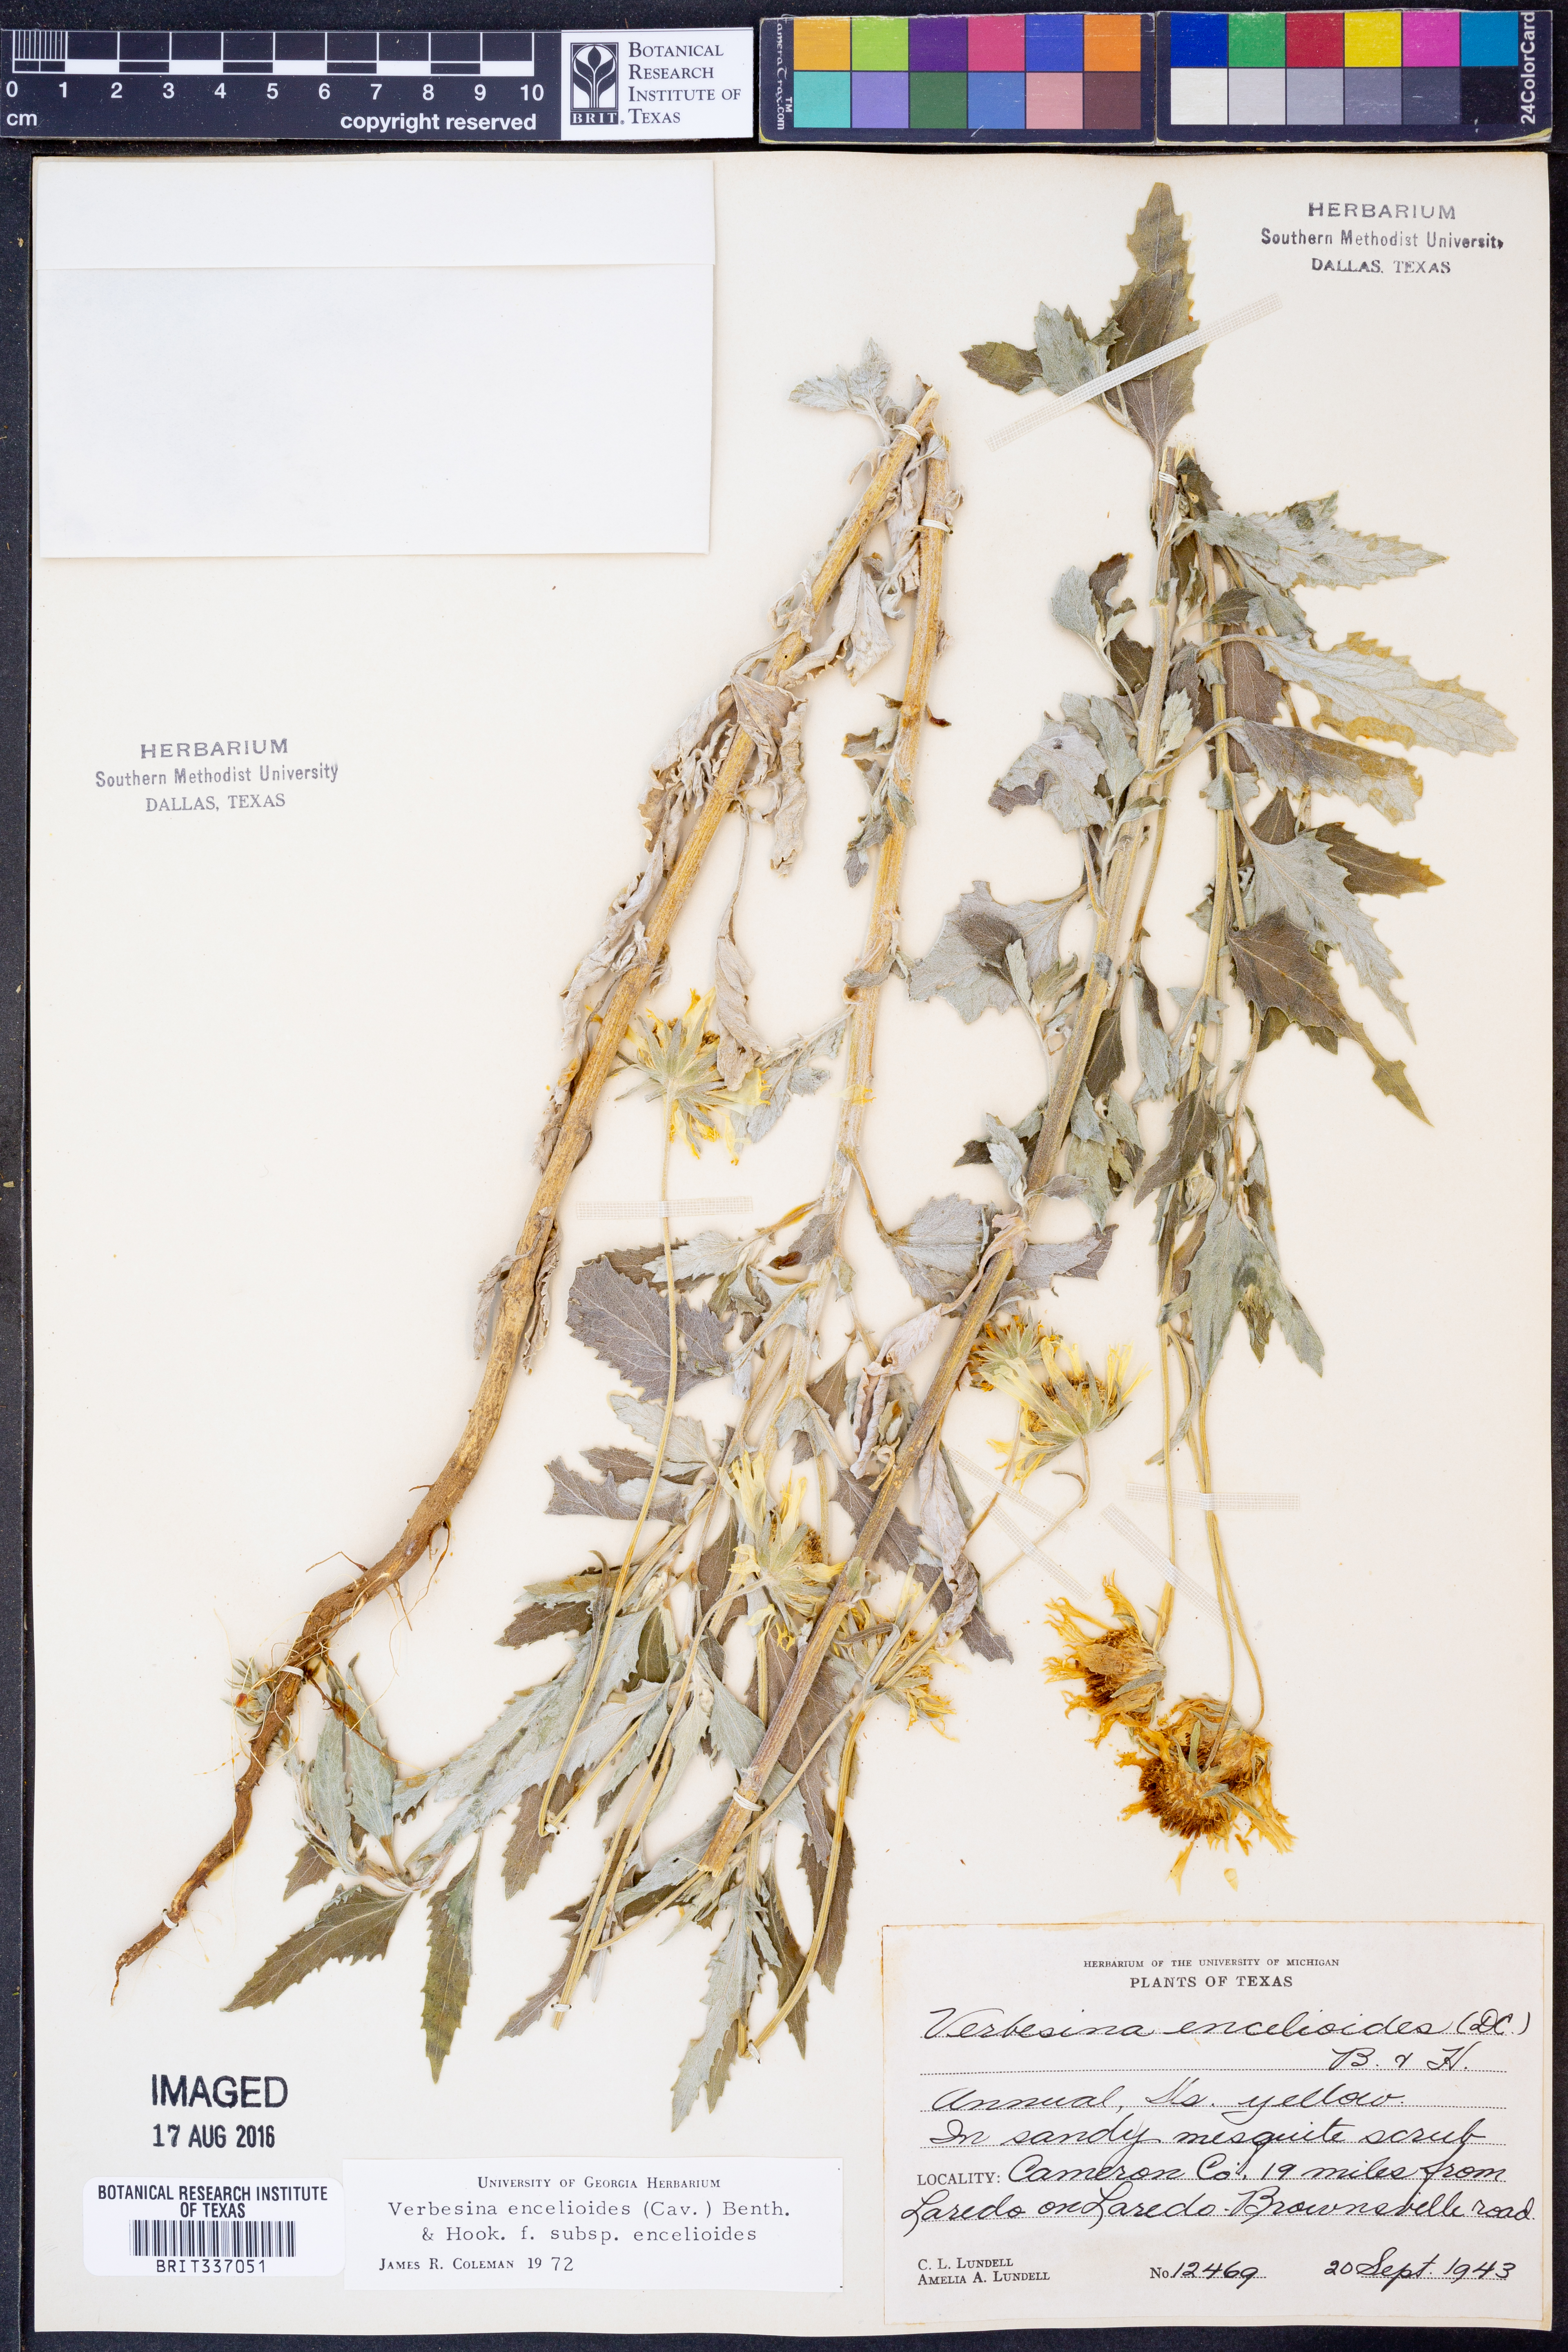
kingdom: Plantae
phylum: Tracheophyta
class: Magnoliopsida
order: Asterales
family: Asteraceae
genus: Verbesina
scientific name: Verbesina encelioides
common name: Golden crownbeard
